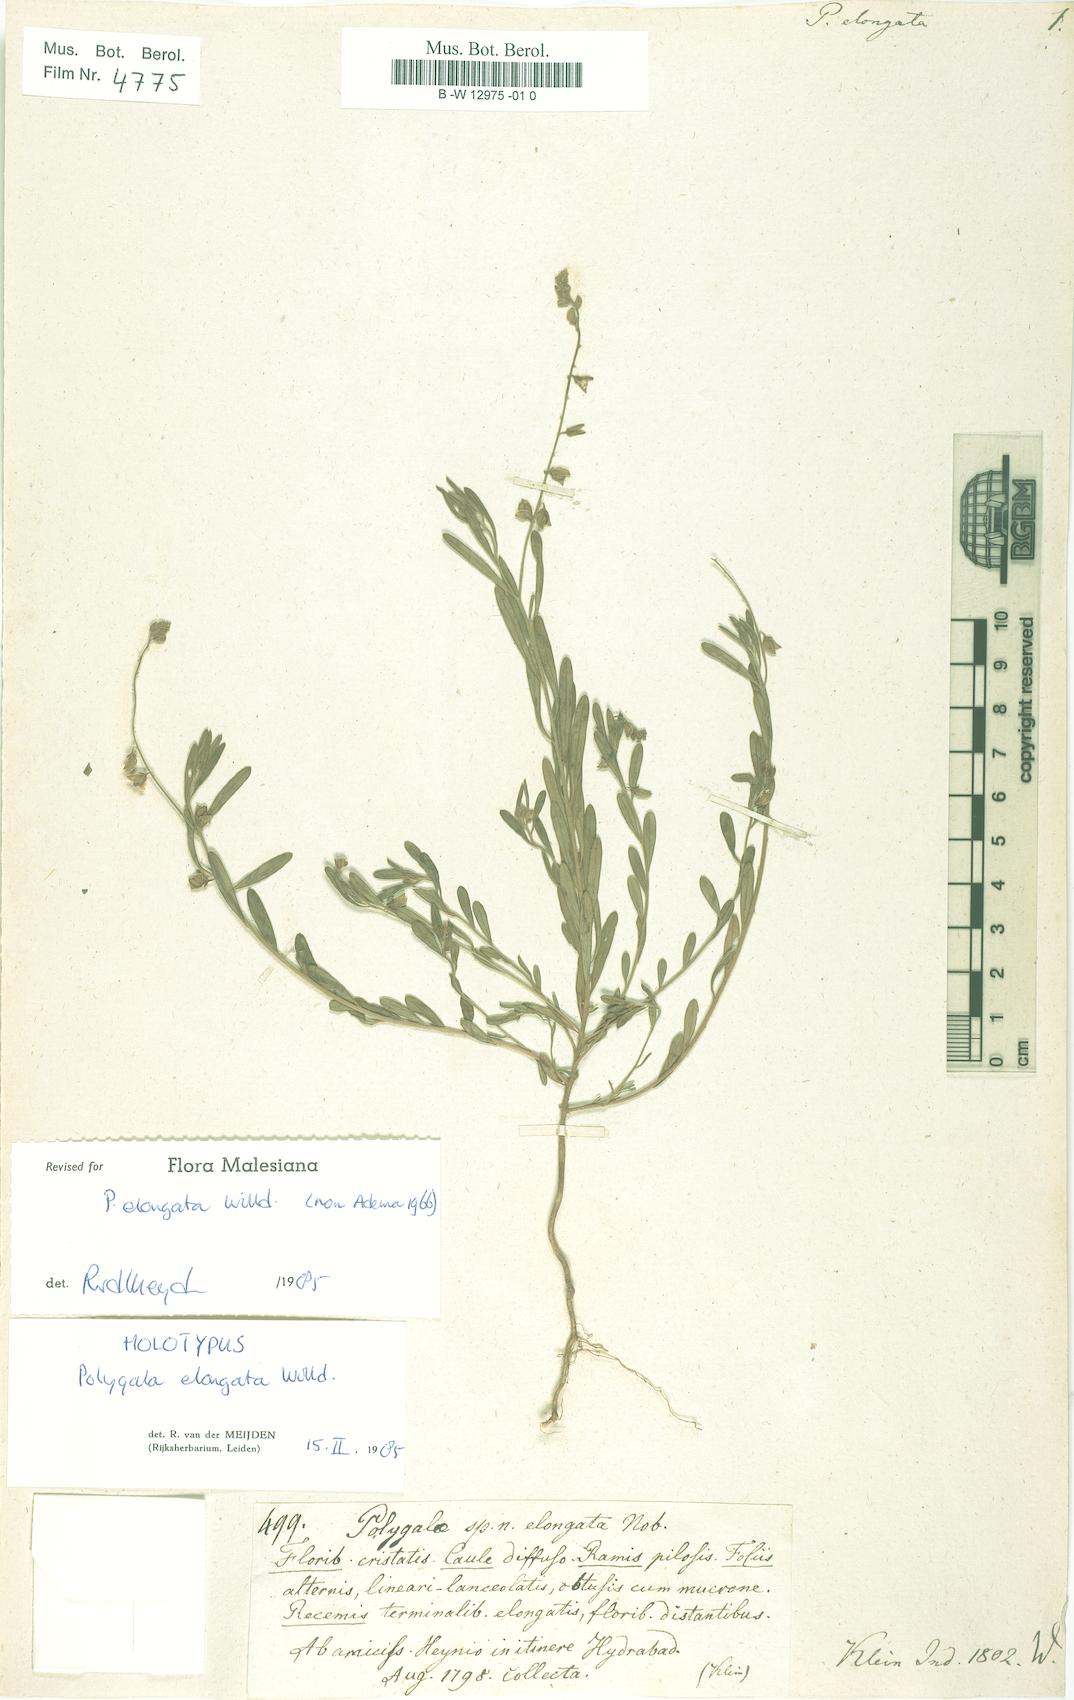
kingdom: Plantae
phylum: Tracheophyta
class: Magnoliopsida
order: Fabales
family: Polygalaceae
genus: Polygala
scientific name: Polygala glaucoides
